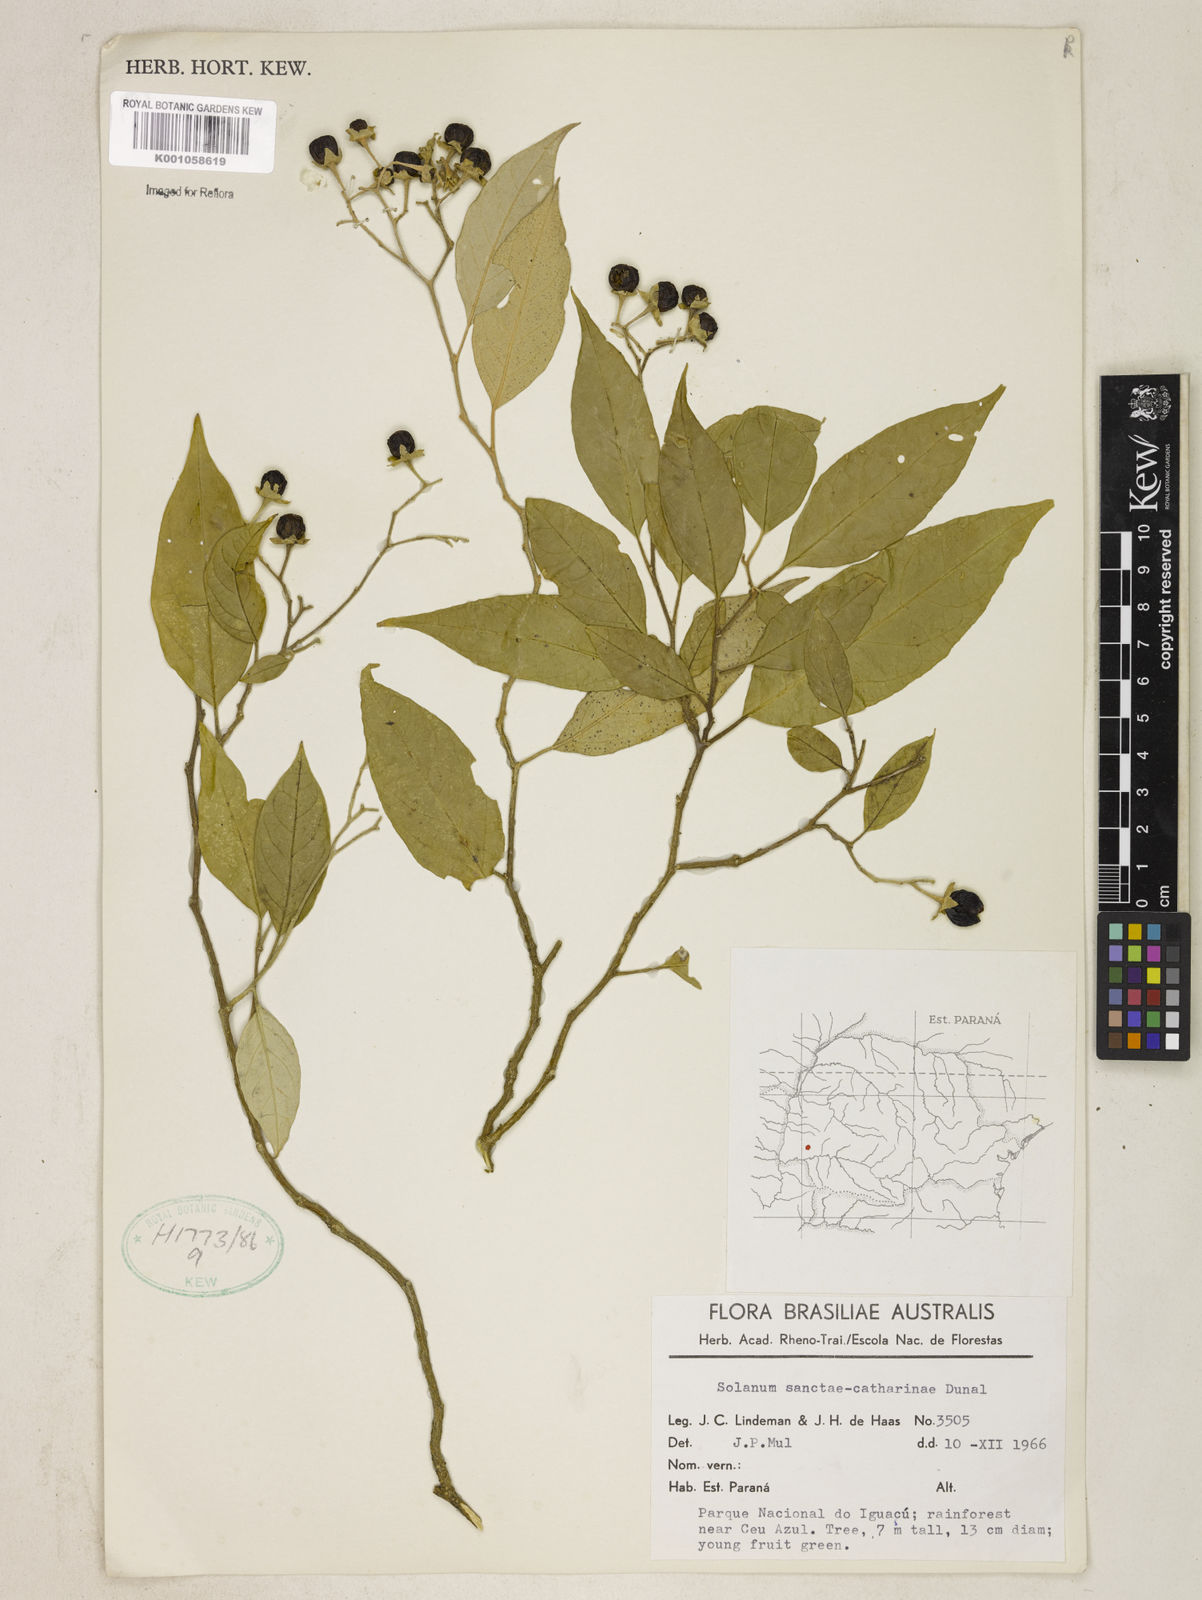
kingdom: Plantae
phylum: Tracheophyta
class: Magnoliopsida
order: Solanales
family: Solanaceae
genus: Solanum
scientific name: Solanum sanctae-catharinae
